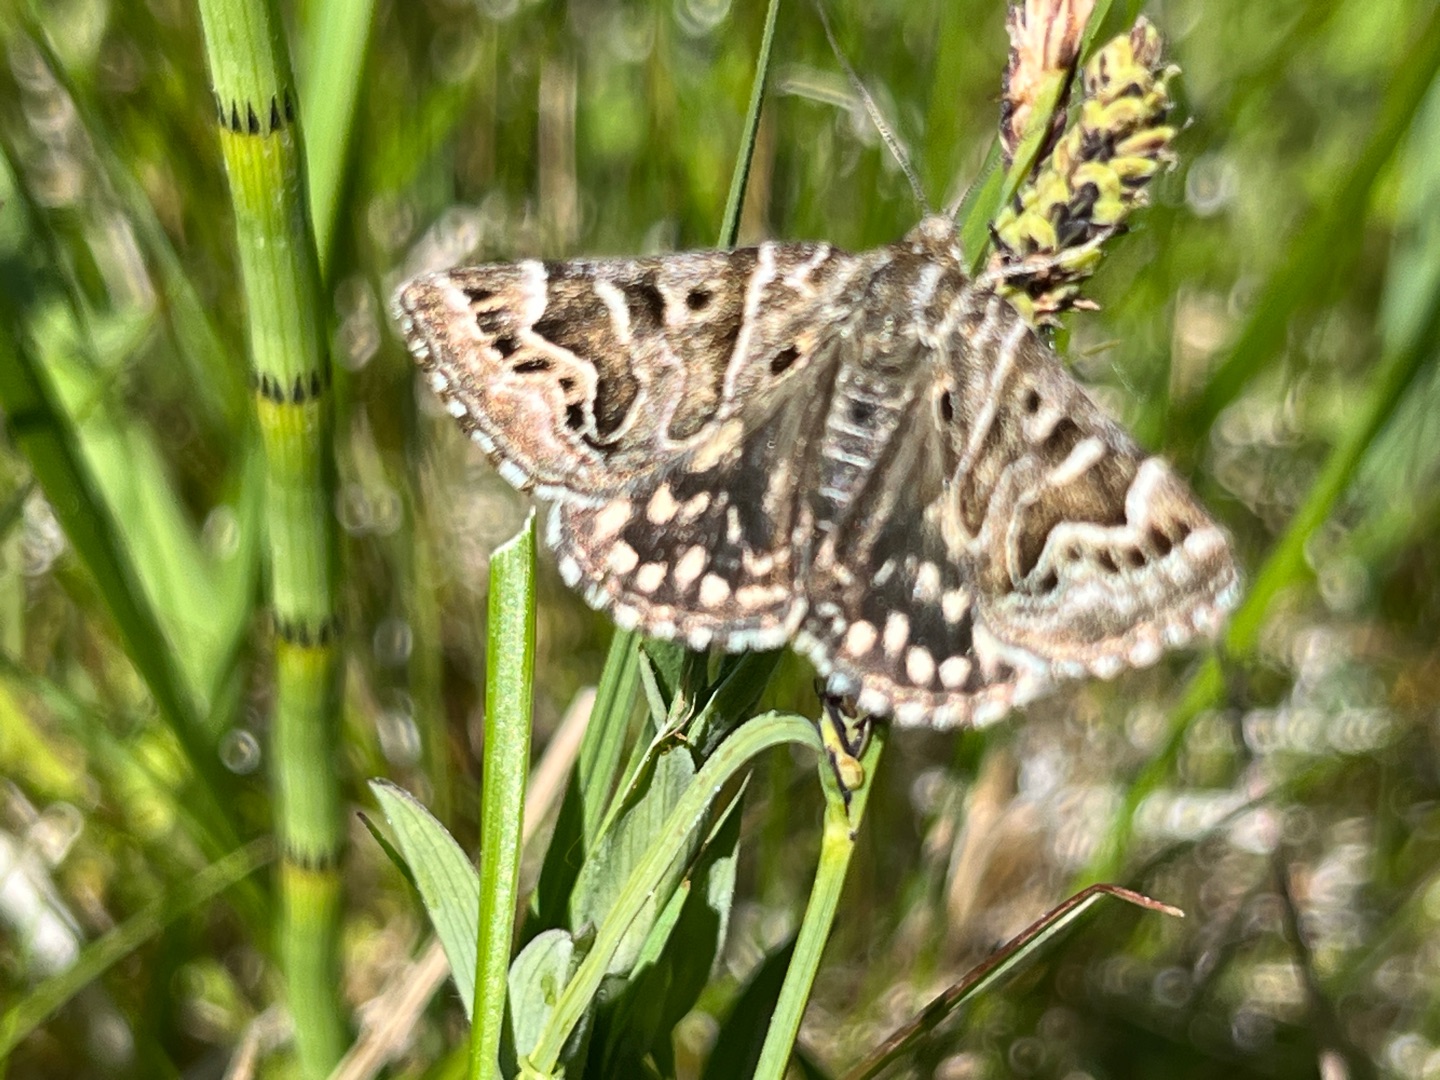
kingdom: Animalia
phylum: Arthropoda
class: Insecta
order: Lepidoptera
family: Erebidae
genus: Callistege
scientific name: Callistege mi
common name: Marmoreret kløverugle
